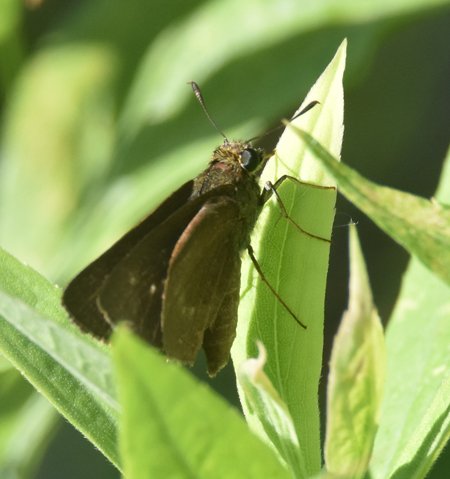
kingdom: Animalia
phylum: Arthropoda
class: Insecta
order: Lepidoptera
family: Hesperiidae
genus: Euphyes
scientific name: Euphyes vestris
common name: Dun Skipper
